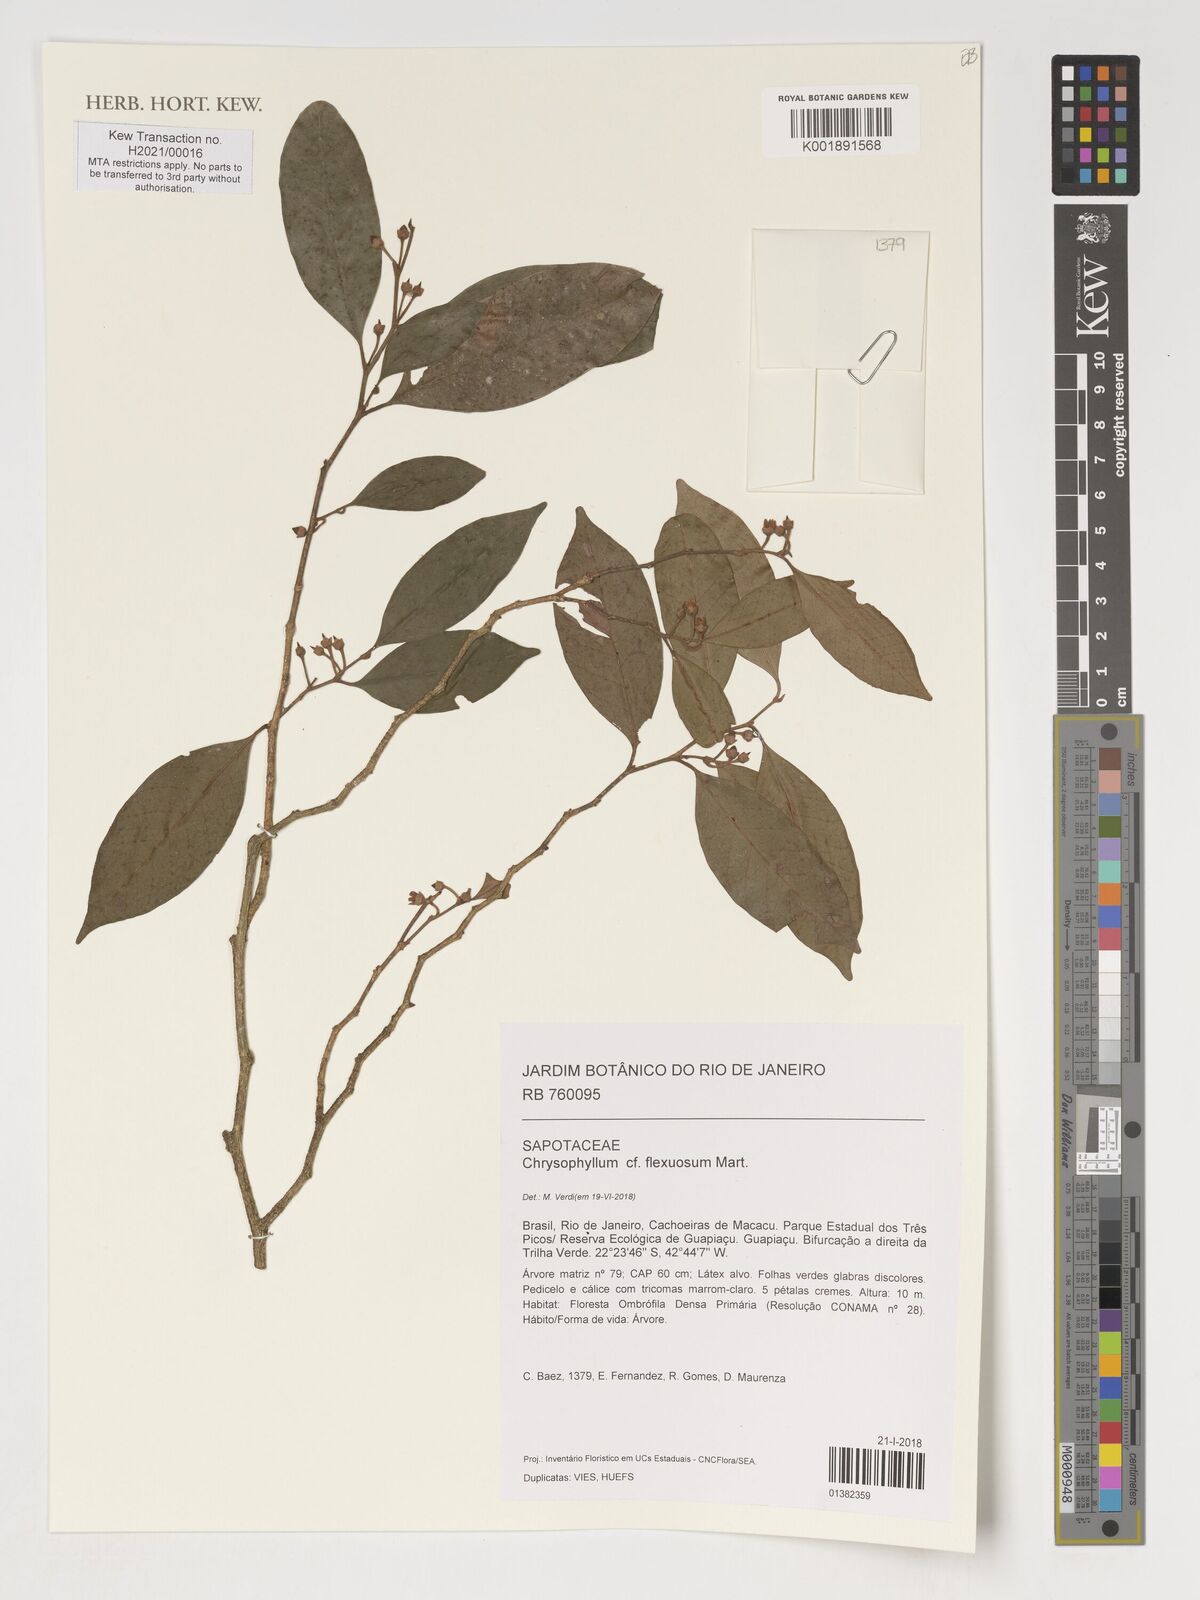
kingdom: Plantae
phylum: Tracheophyta
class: Magnoliopsida
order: Ericales
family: Sapotaceae
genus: Chrysophyllum
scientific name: Chrysophyllum flexuosum
